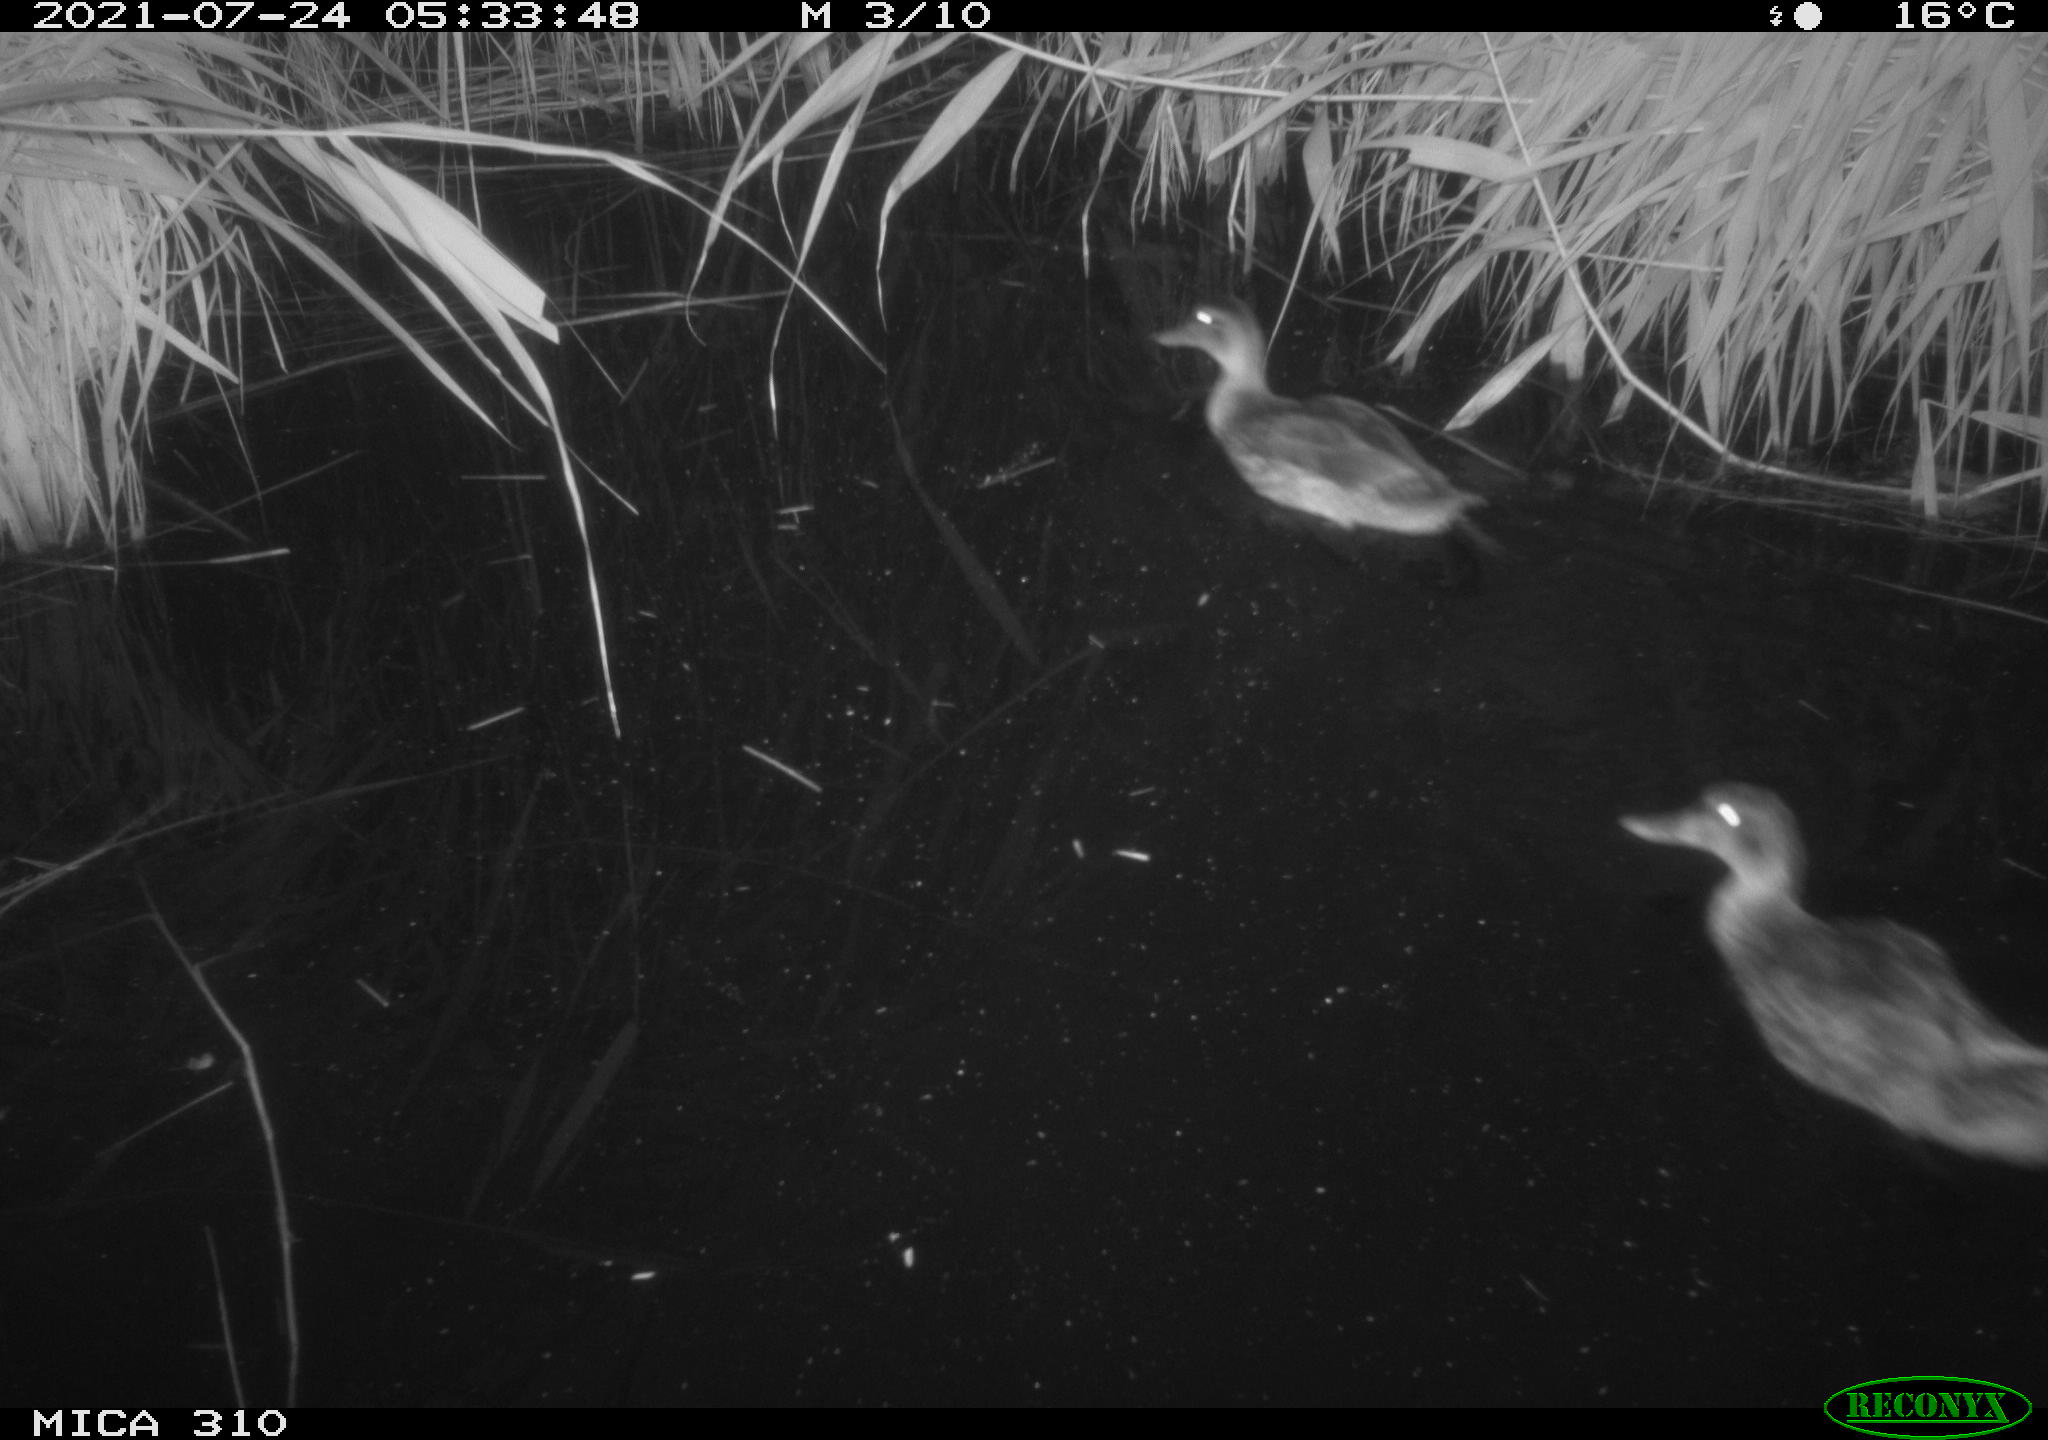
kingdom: Animalia
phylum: Chordata
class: Aves
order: Anseriformes
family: Anatidae
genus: Anas
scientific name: Anas platyrhynchos
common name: Mallard
